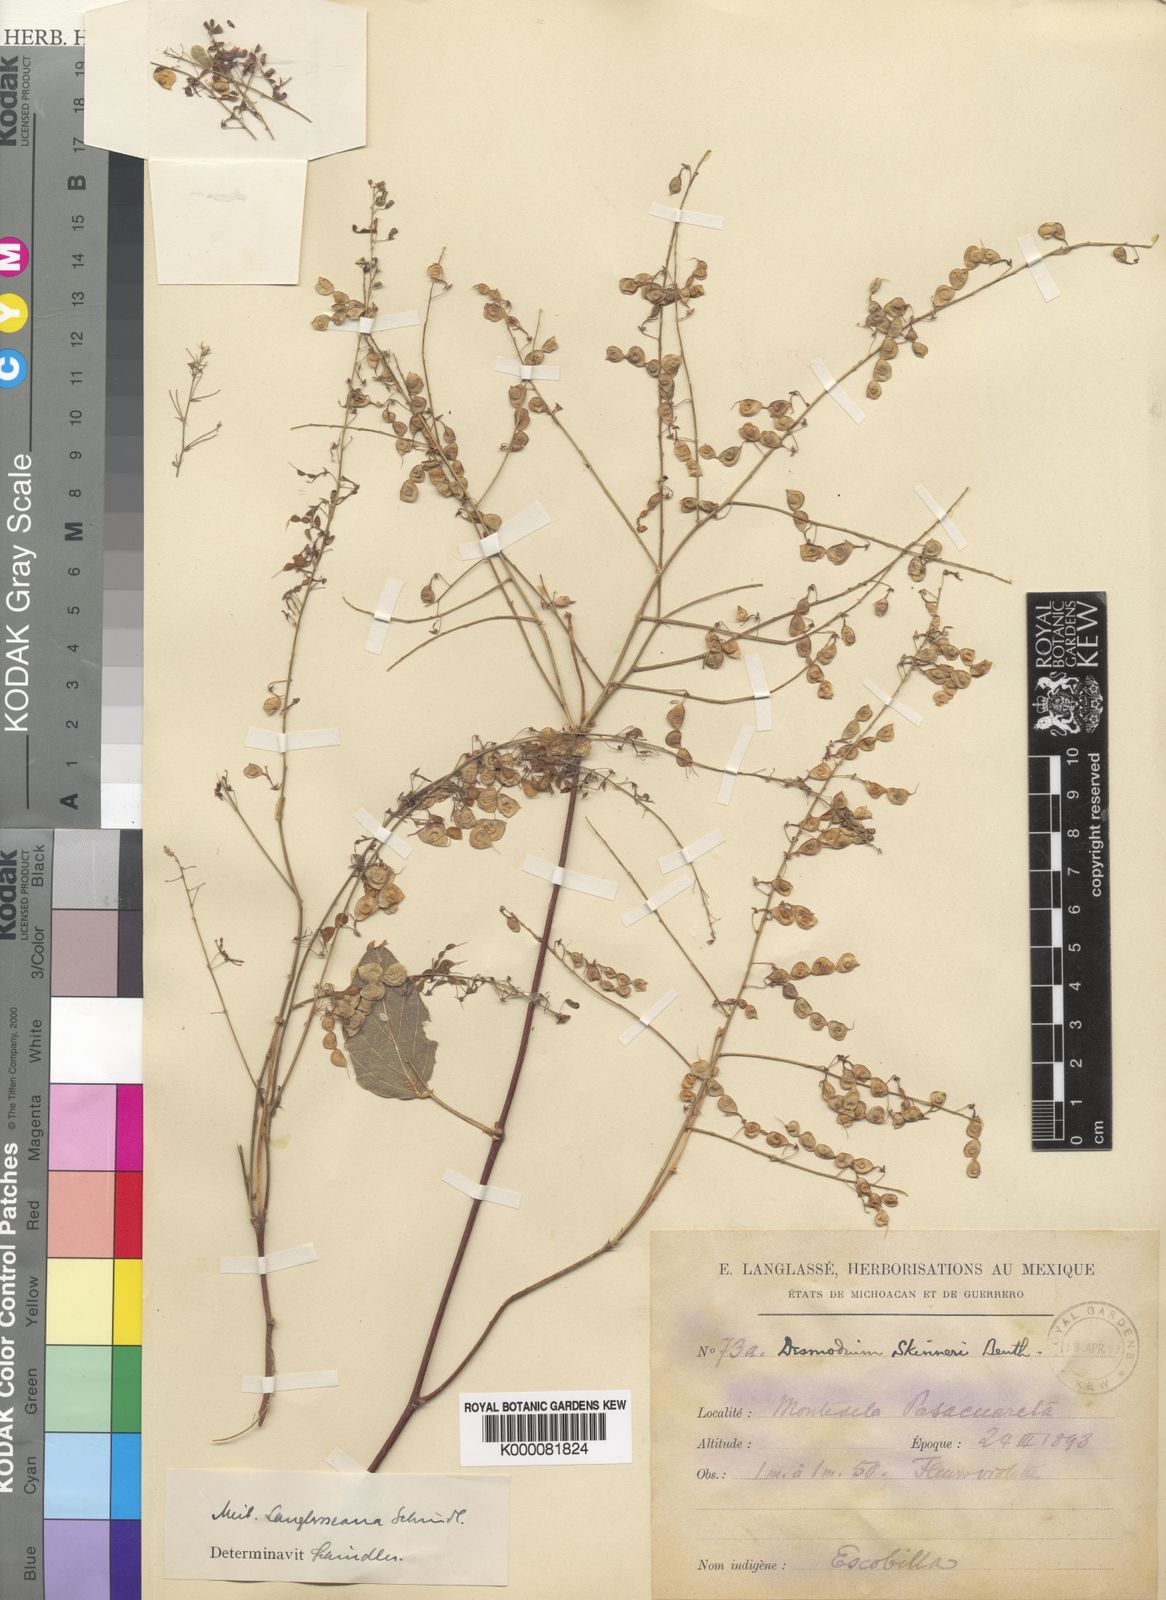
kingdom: Plantae
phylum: Tracheophyta
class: Magnoliopsida
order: Fabales
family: Fabaceae
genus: Desmodium
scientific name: Desmodium
